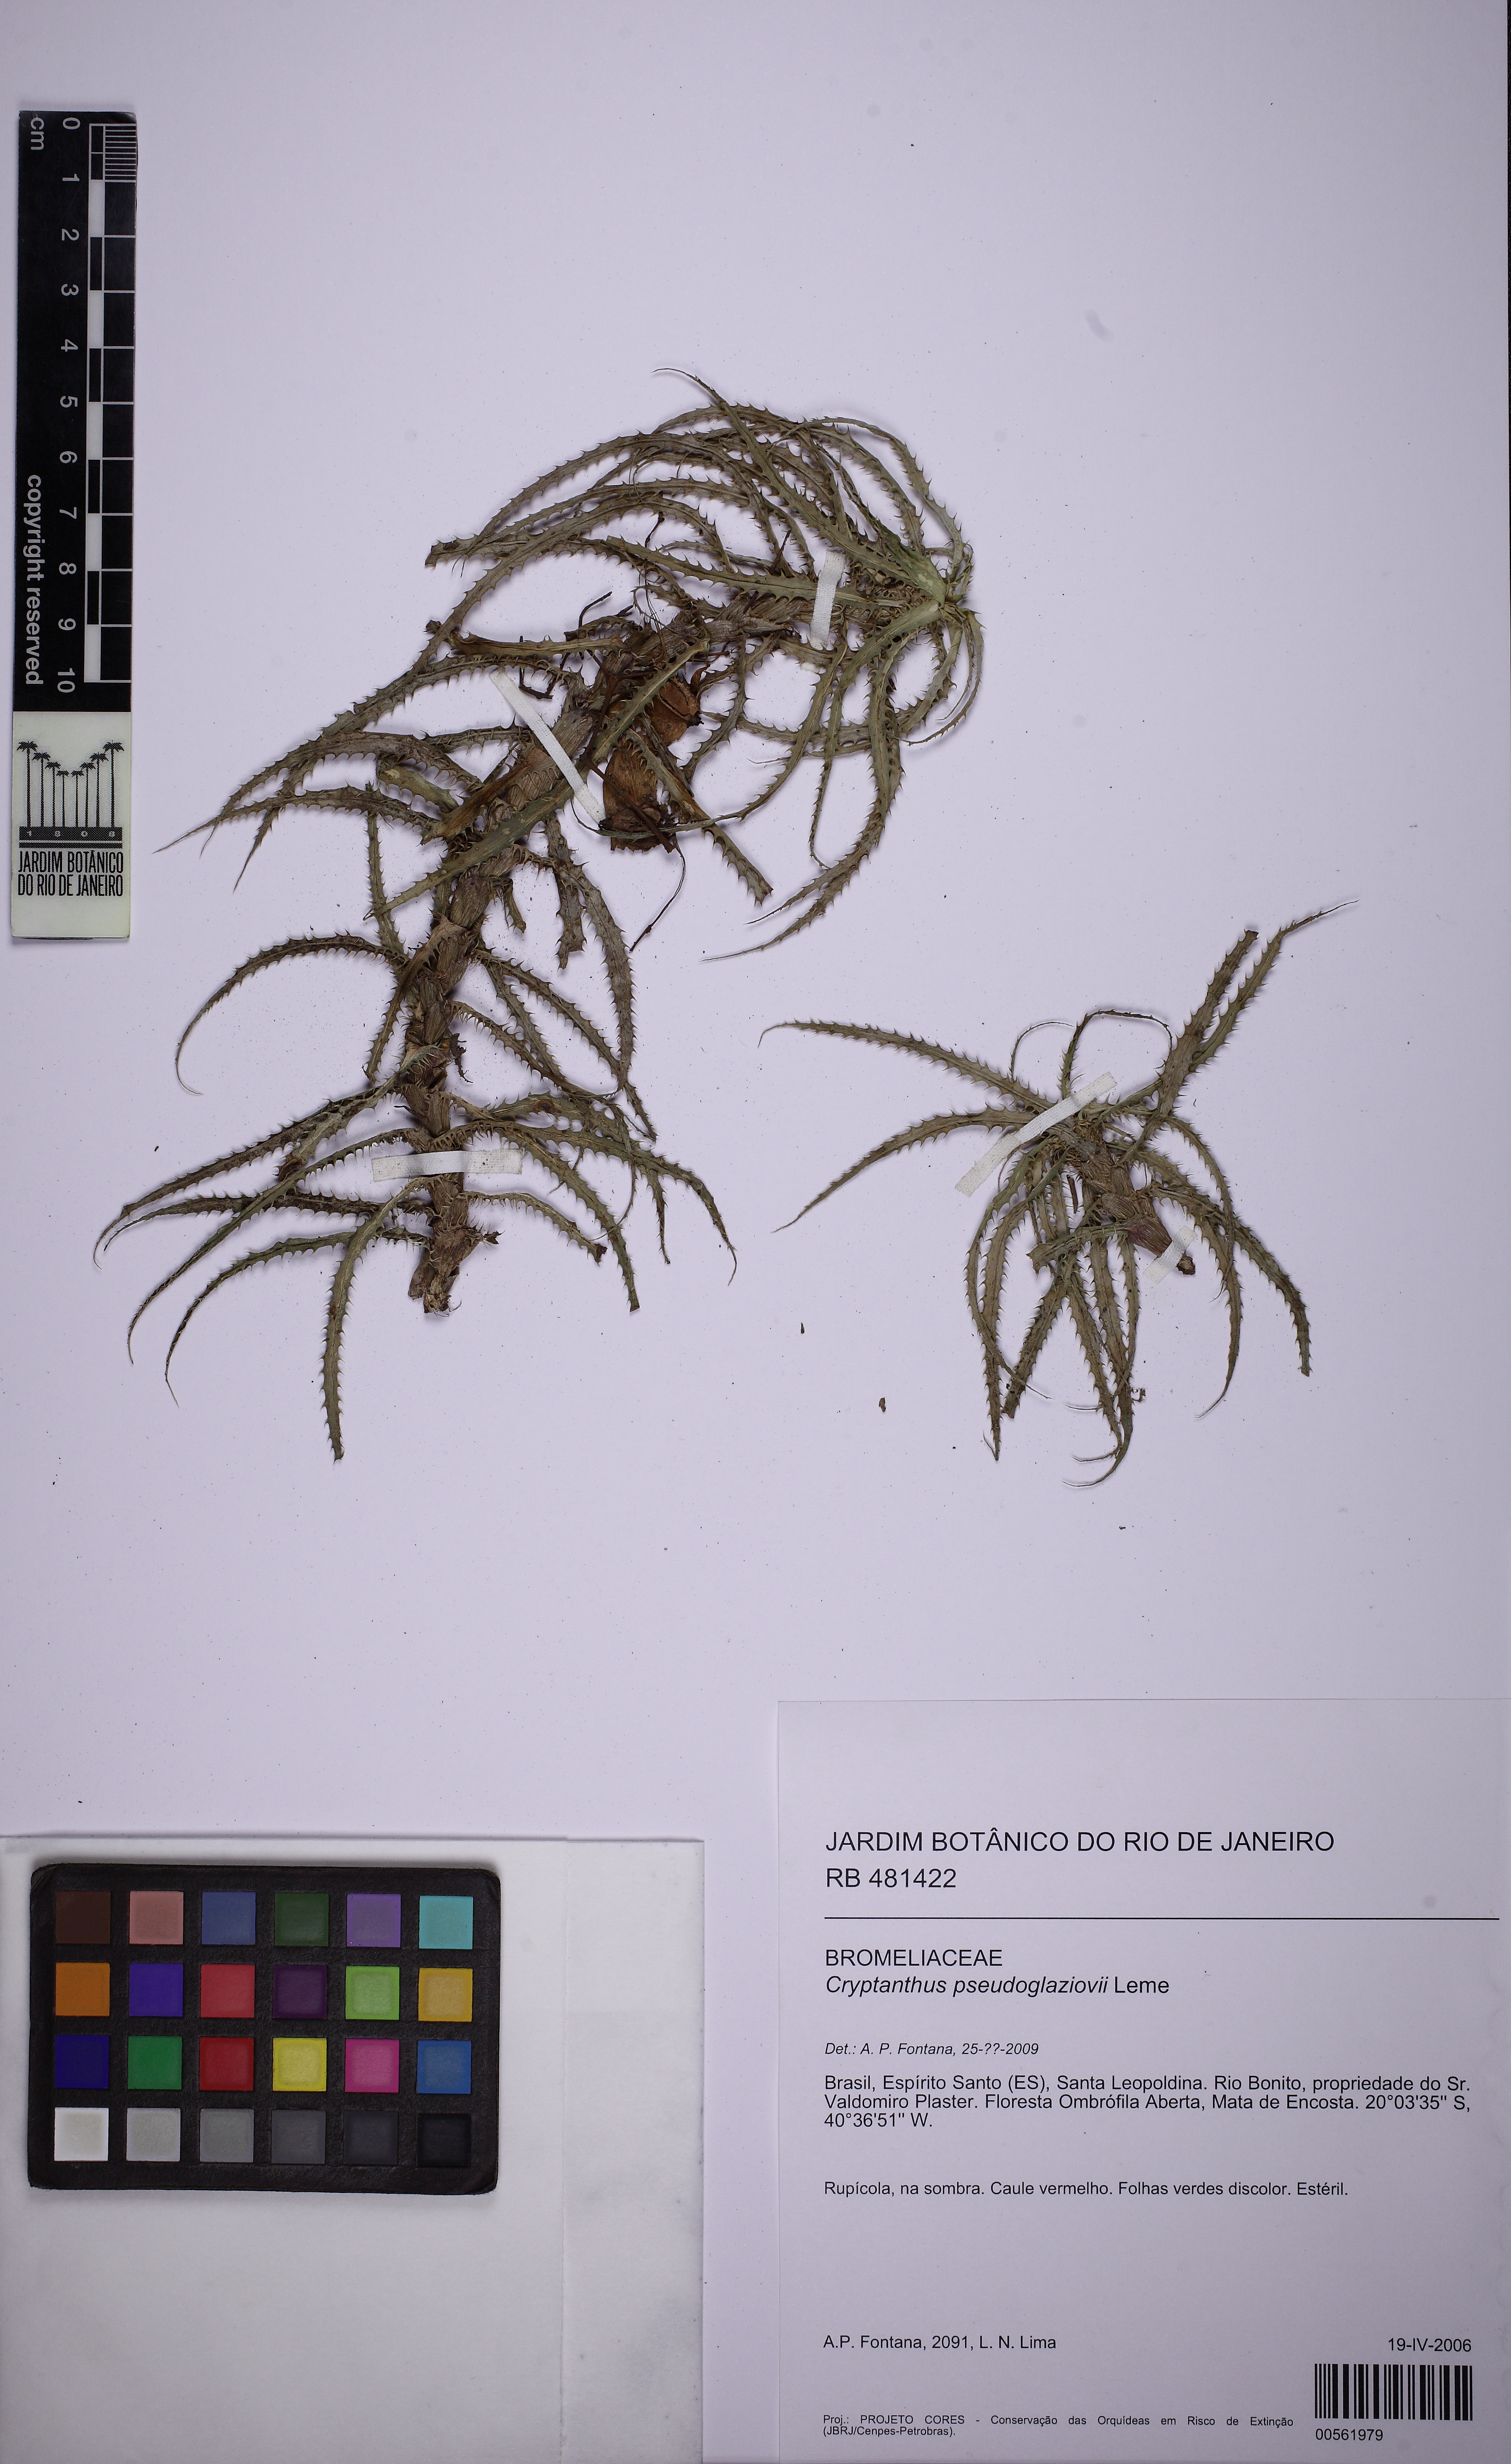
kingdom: Plantae
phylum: Tracheophyta
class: Liliopsida
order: Poales
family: Bromeliaceae
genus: Rokautskyia
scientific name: Rokautskyia pseudoglaziovii
